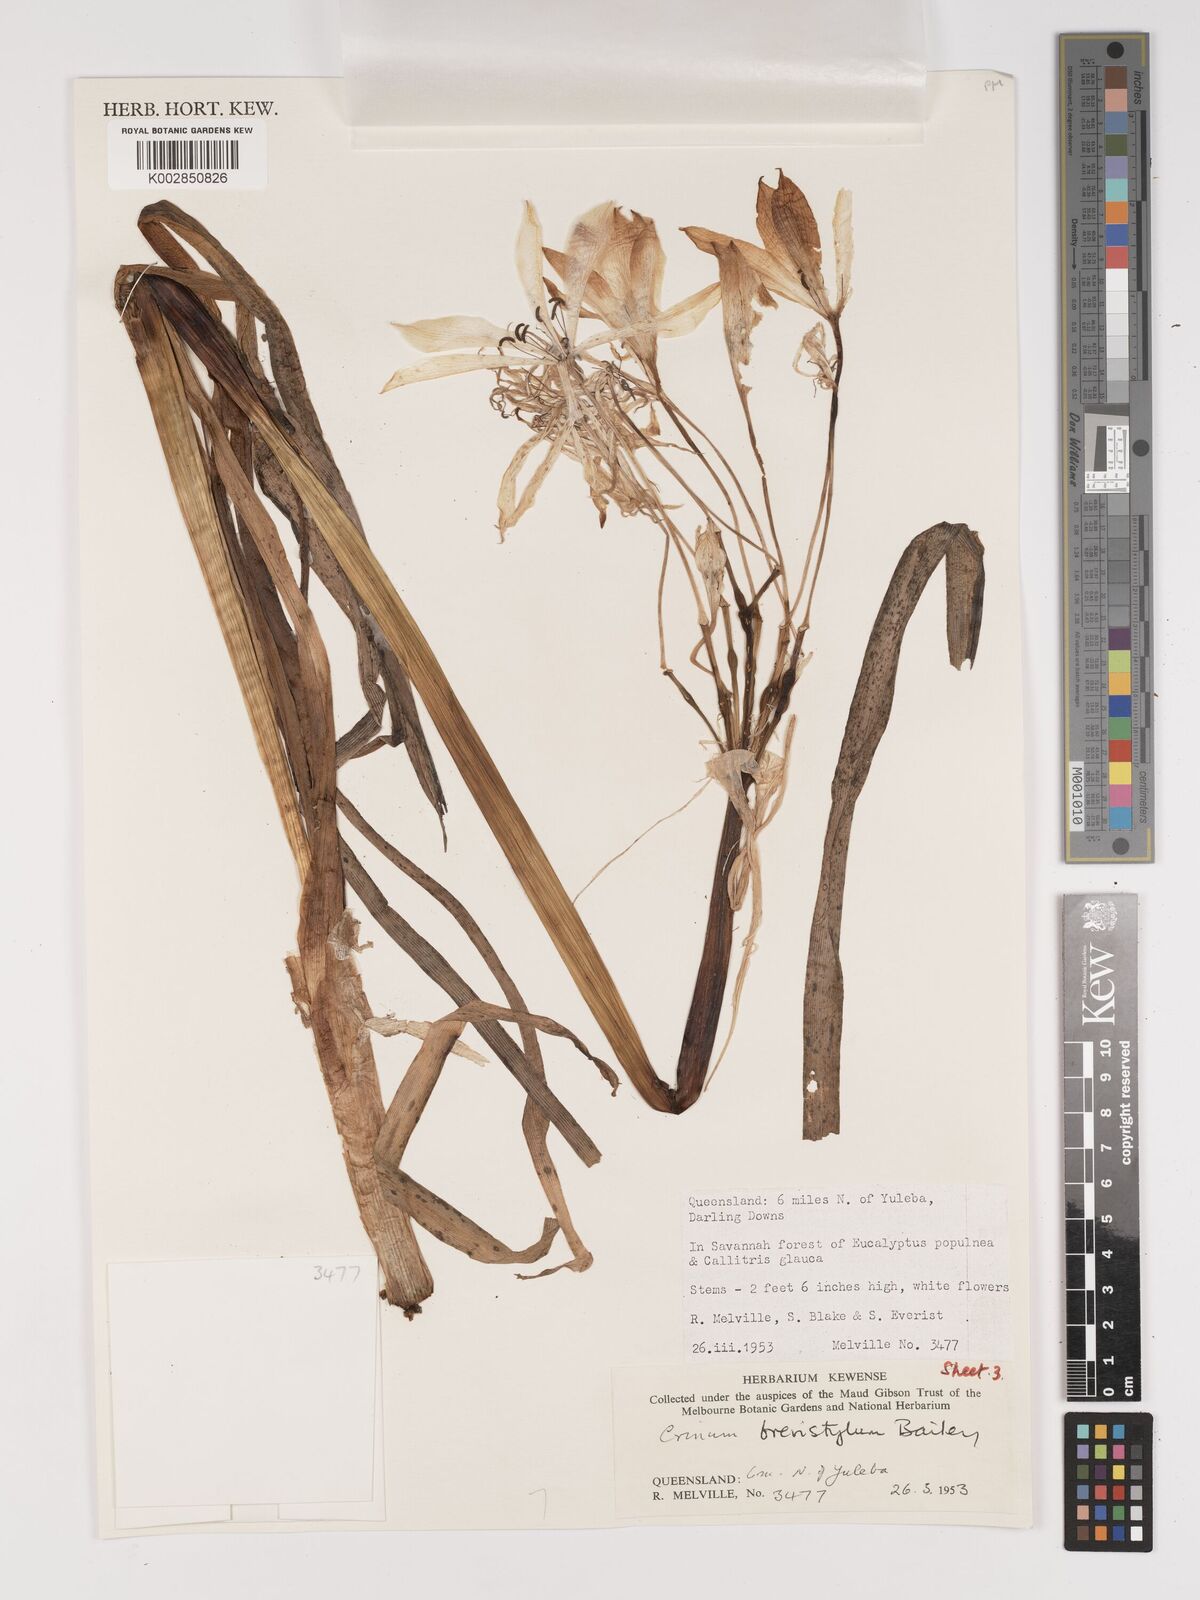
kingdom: Plantae
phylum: Tracheophyta
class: Liliopsida
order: Asparagales
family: Amaryllidaceae
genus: Crinum
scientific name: Crinum venosum
